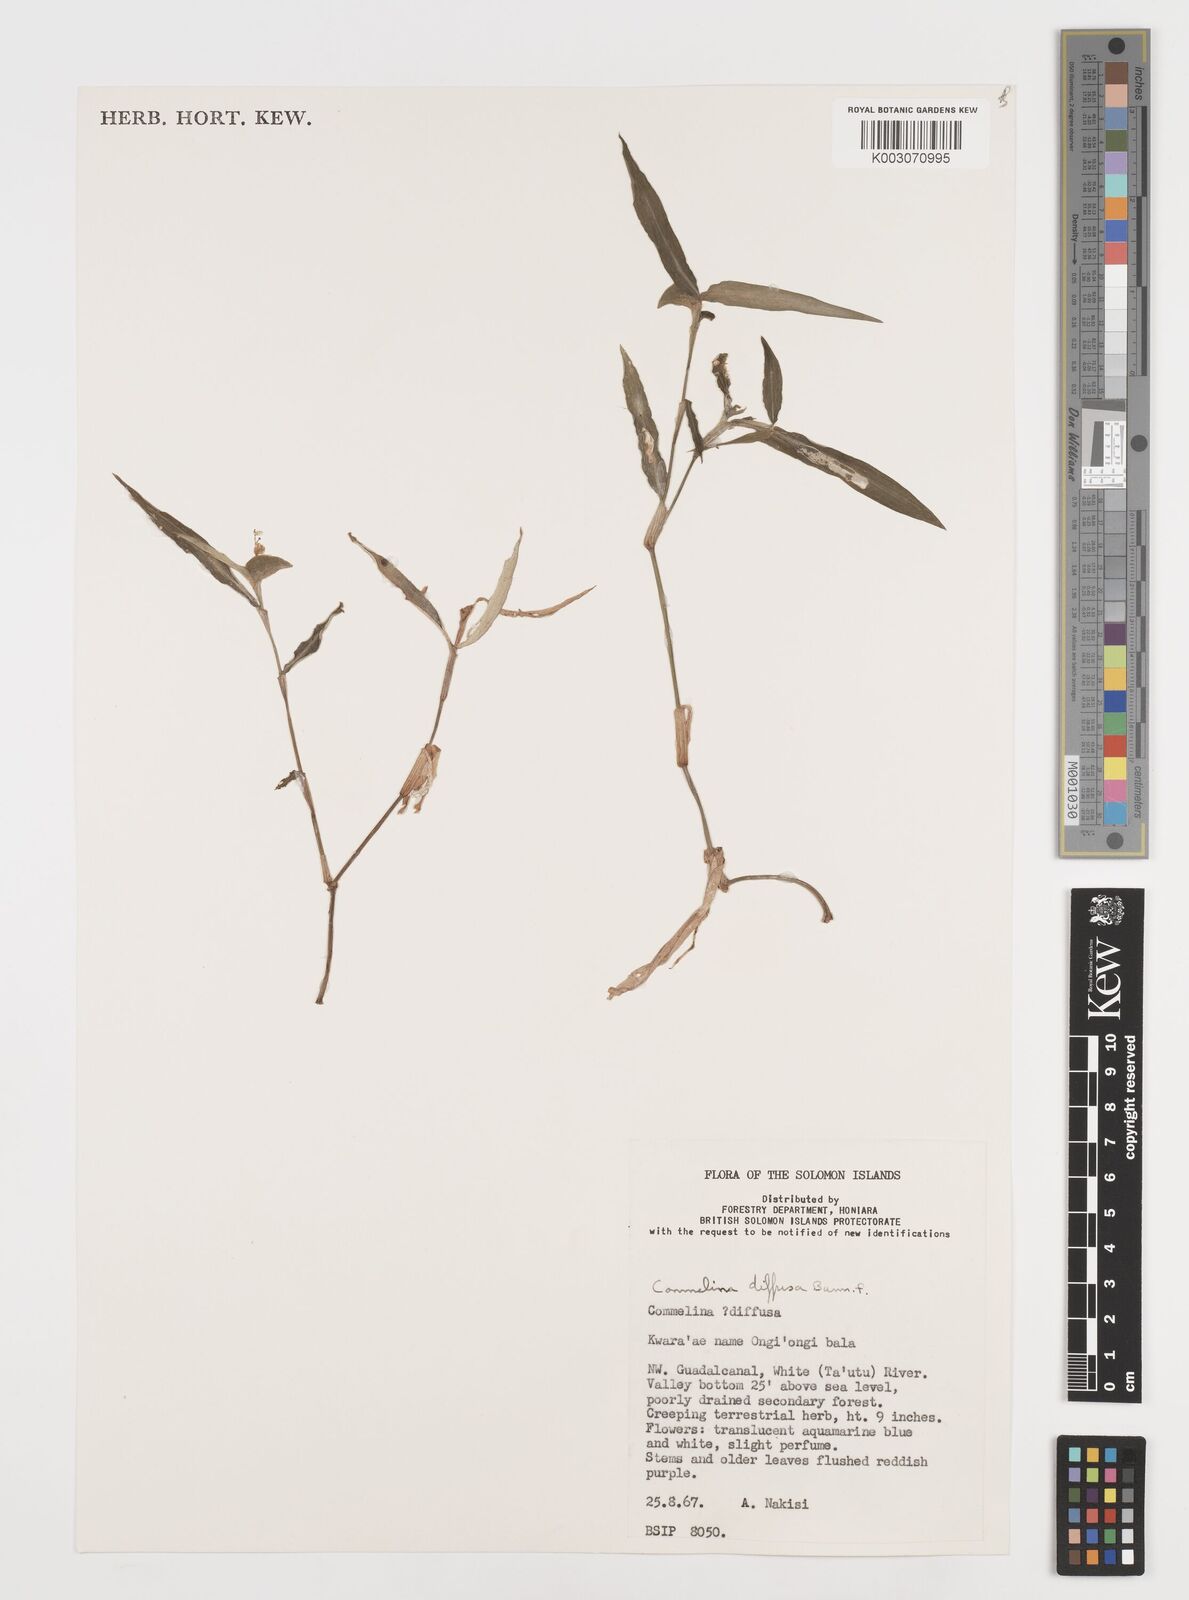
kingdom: Plantae
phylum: Tracheophyta
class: Liliopsida
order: Commelinales
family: Commelinaceae
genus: Commelina
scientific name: Commelina diffusa
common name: Climbing dayflower
